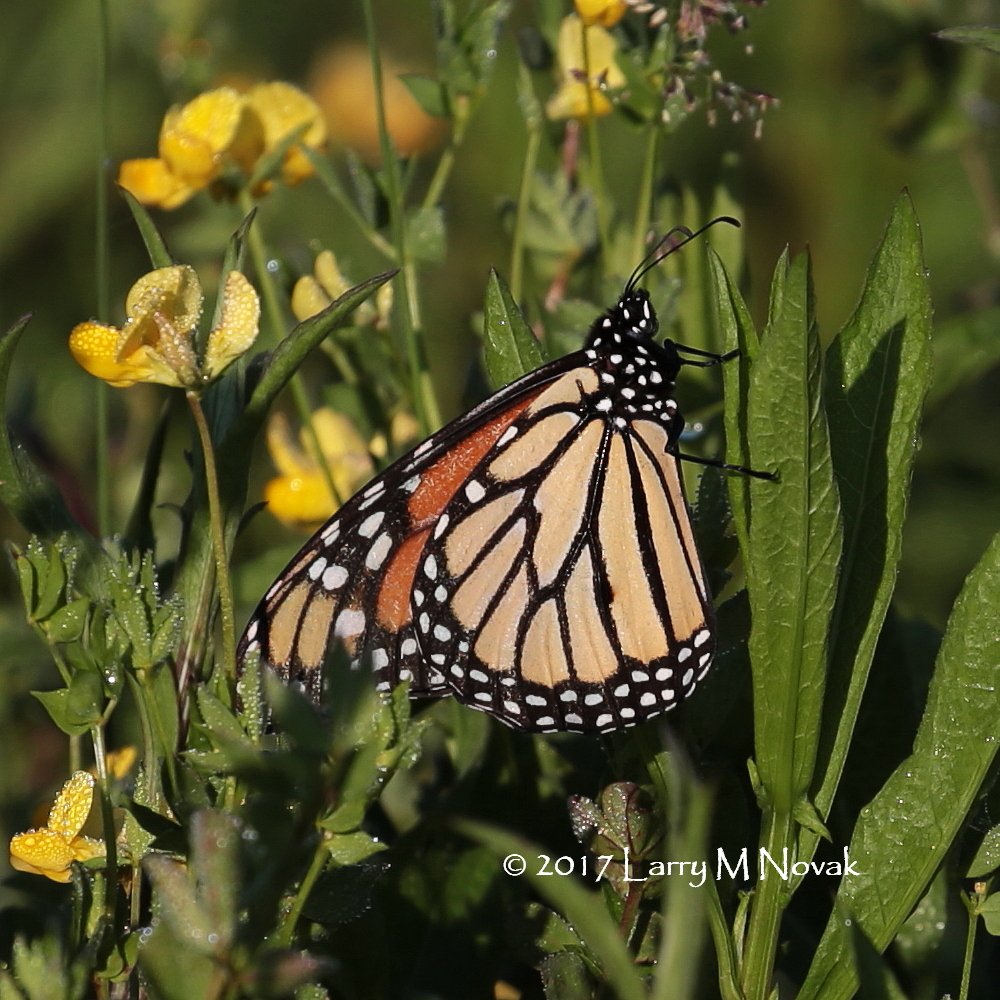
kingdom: Animalia
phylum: Arthropoda
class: Insecta
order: Lepidoptera
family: Nymphalidae
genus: Danaus
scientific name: Danaus plexippus
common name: Monarch
